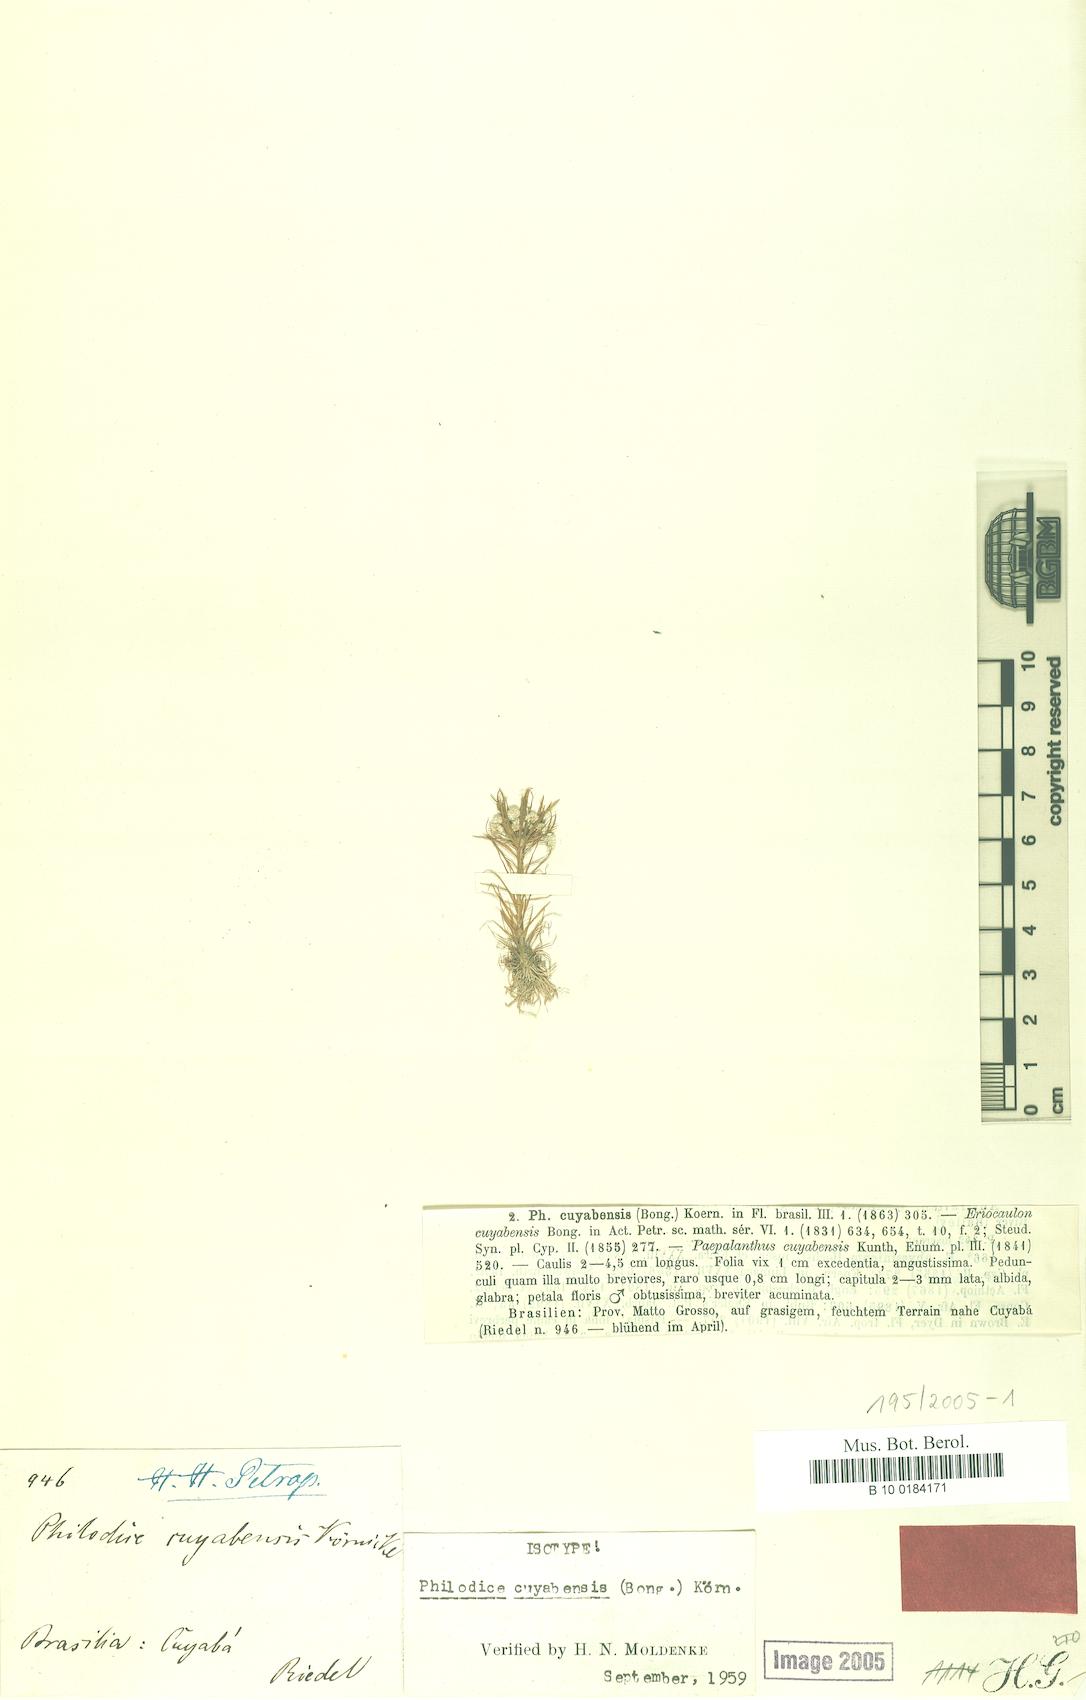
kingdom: Plantae
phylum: Tracheophyta
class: Liliopsida
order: Poales
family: Eriocaulaceae
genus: Syngonanthus
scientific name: Syngonanthus cuyabensis
